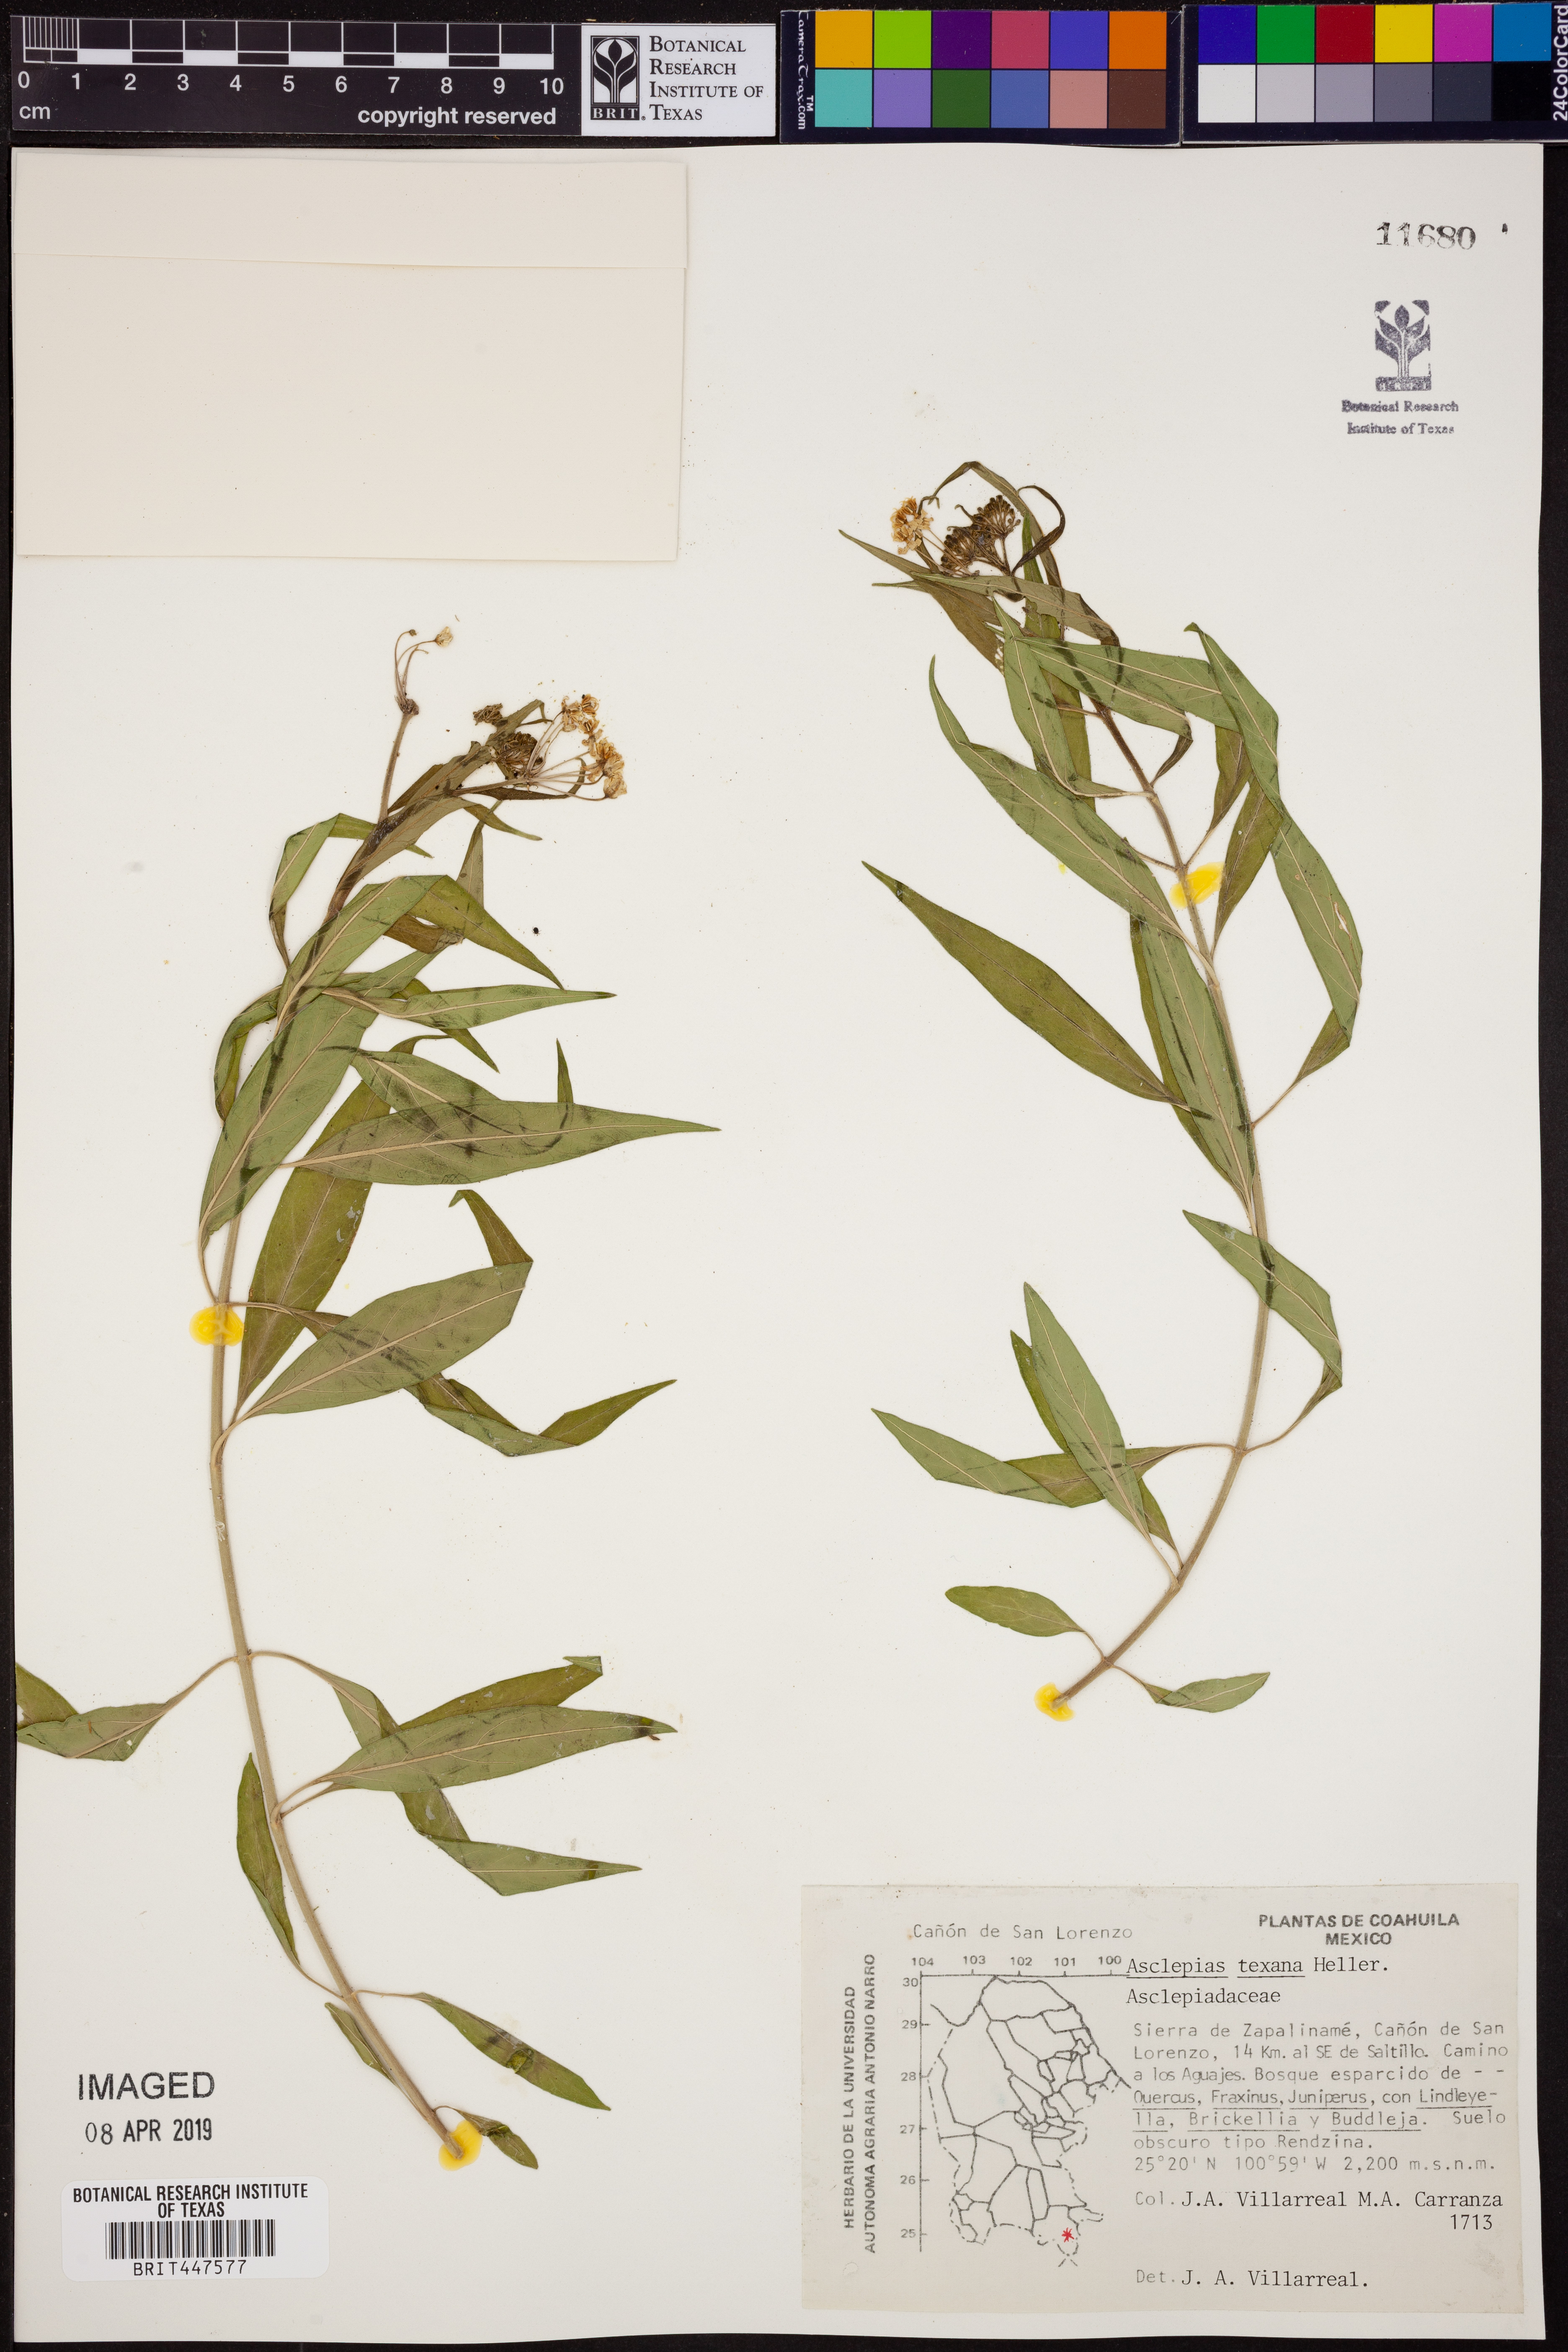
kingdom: Plantae
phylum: Tracheophyta
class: Magnoliopsida
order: Gentianales
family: Apocynaceae
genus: Asclepias
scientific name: Asclepias texana
